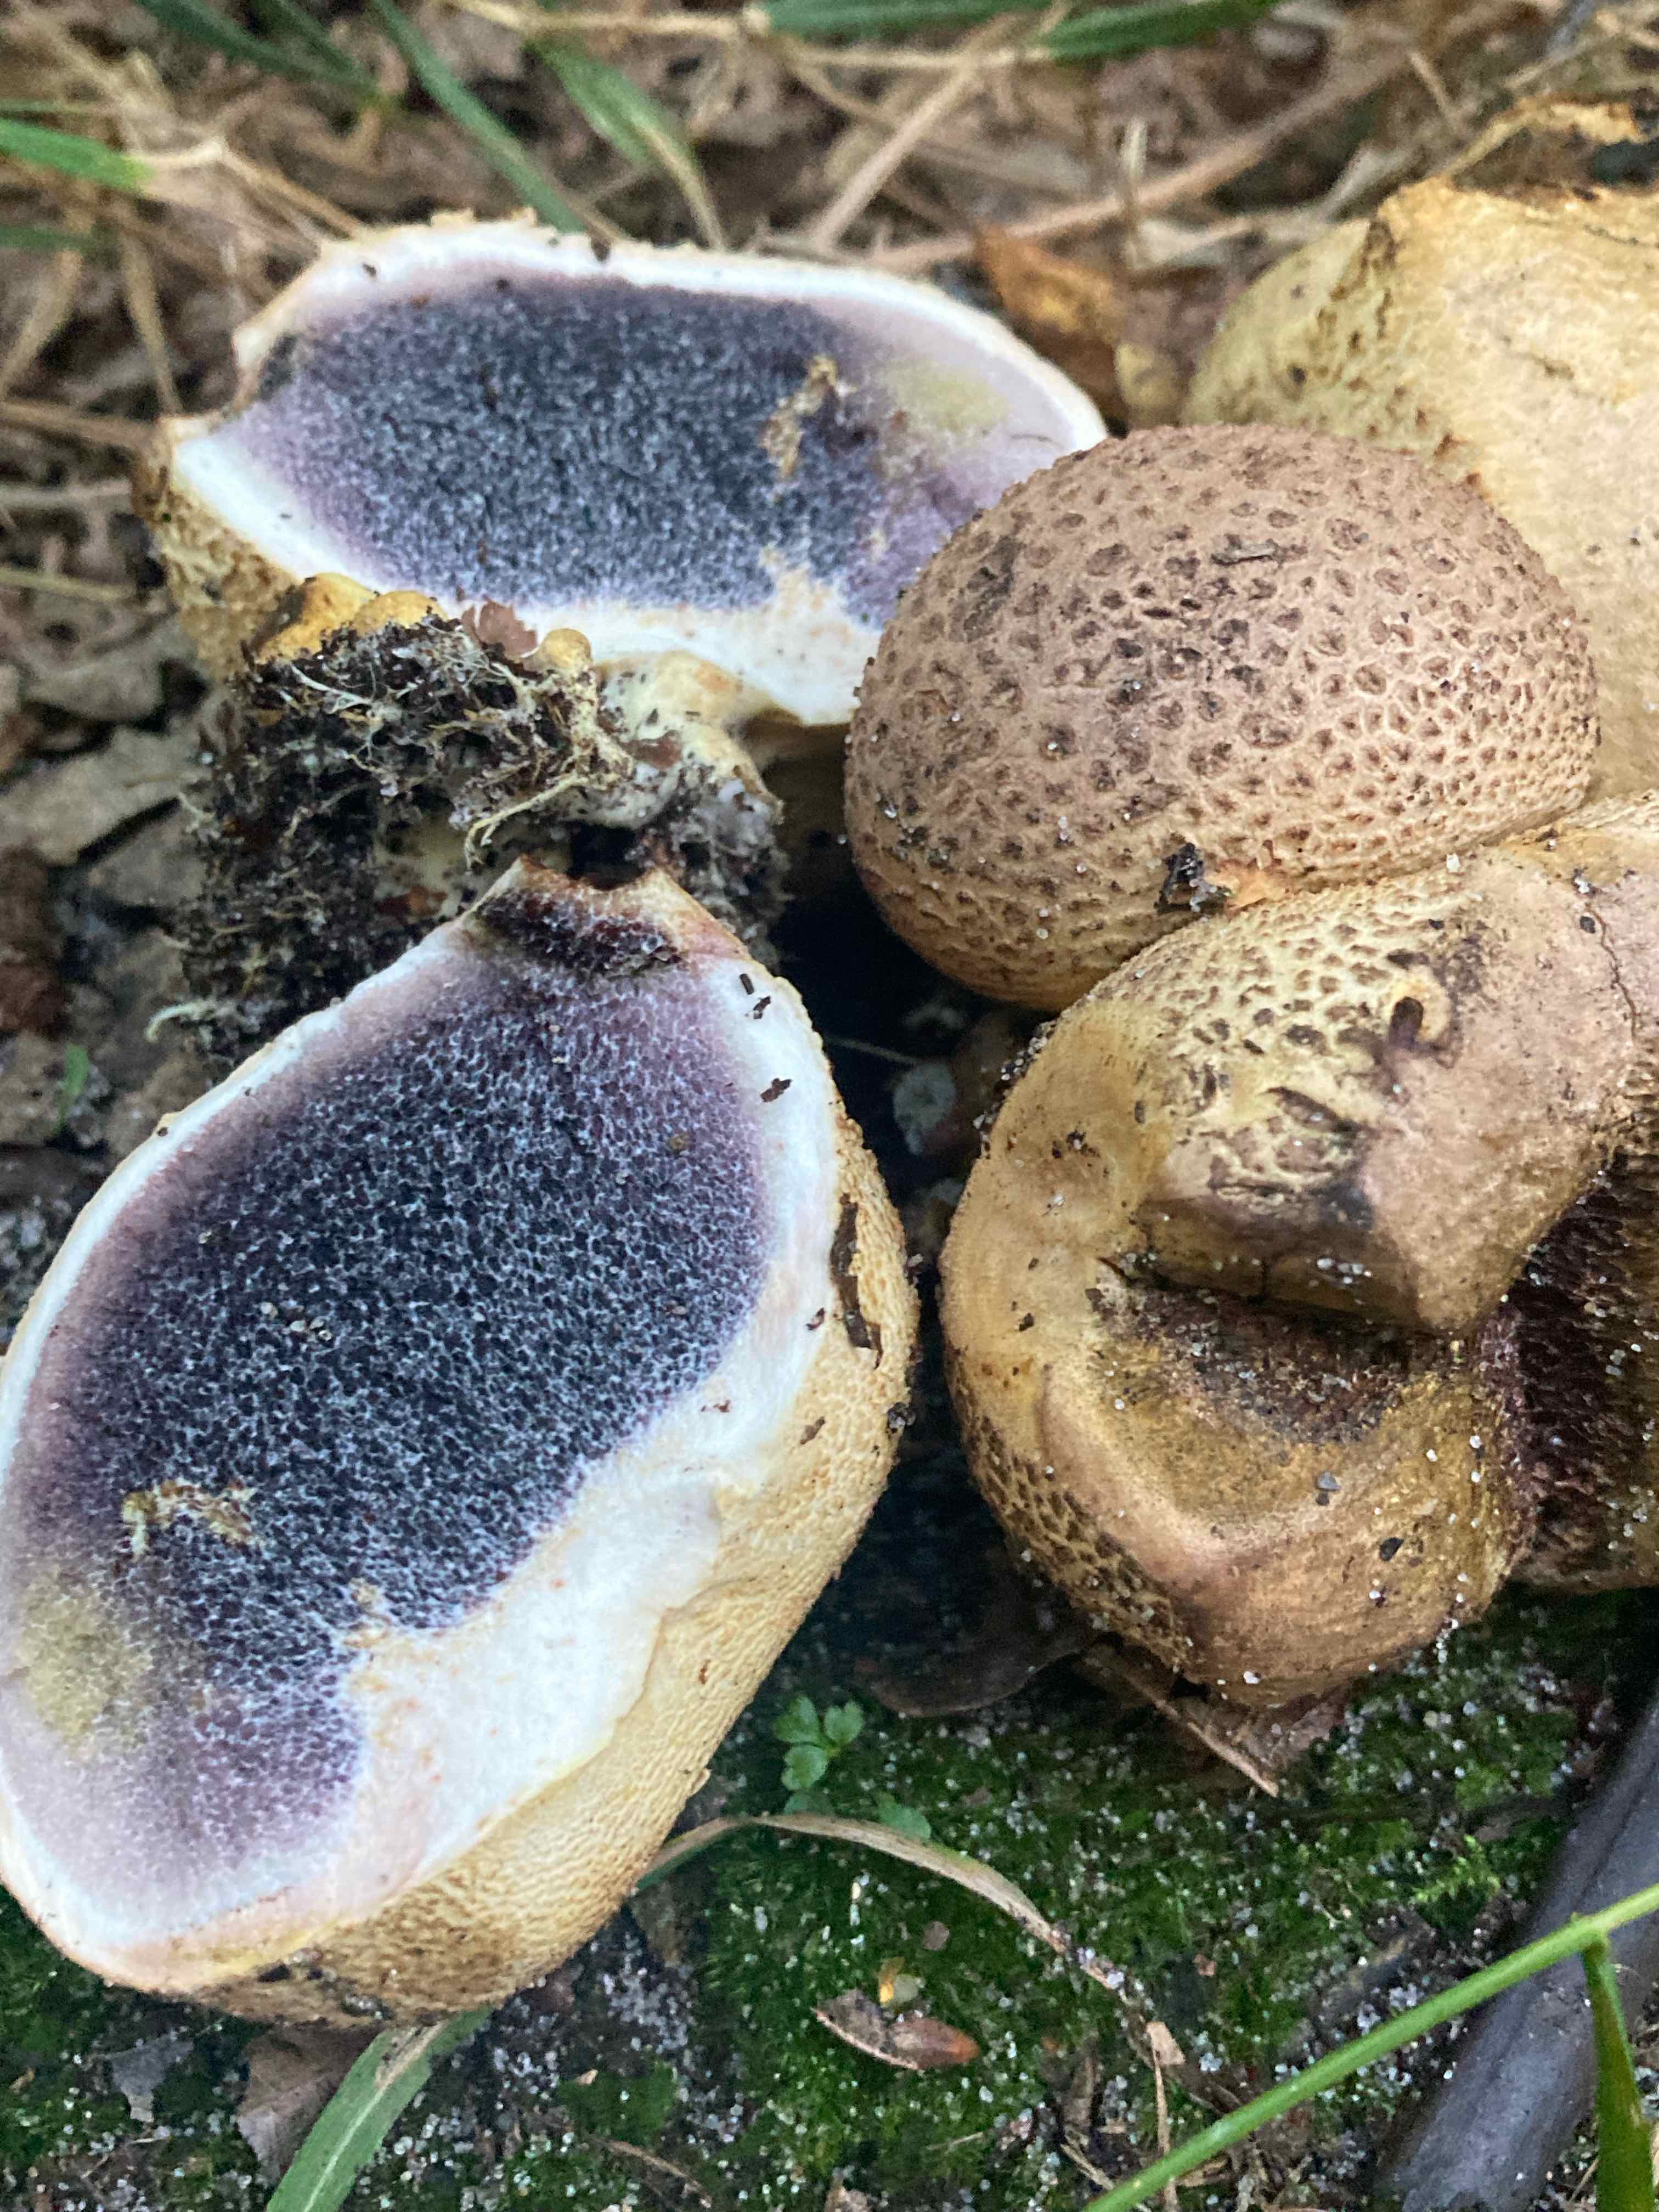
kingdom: Fungi
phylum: Basidiomycota
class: Agaricomycetes
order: Boletales
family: Sclerodermataceae
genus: Scleroderma
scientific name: Scleroderma citrinum
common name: almindelig bruskbold
